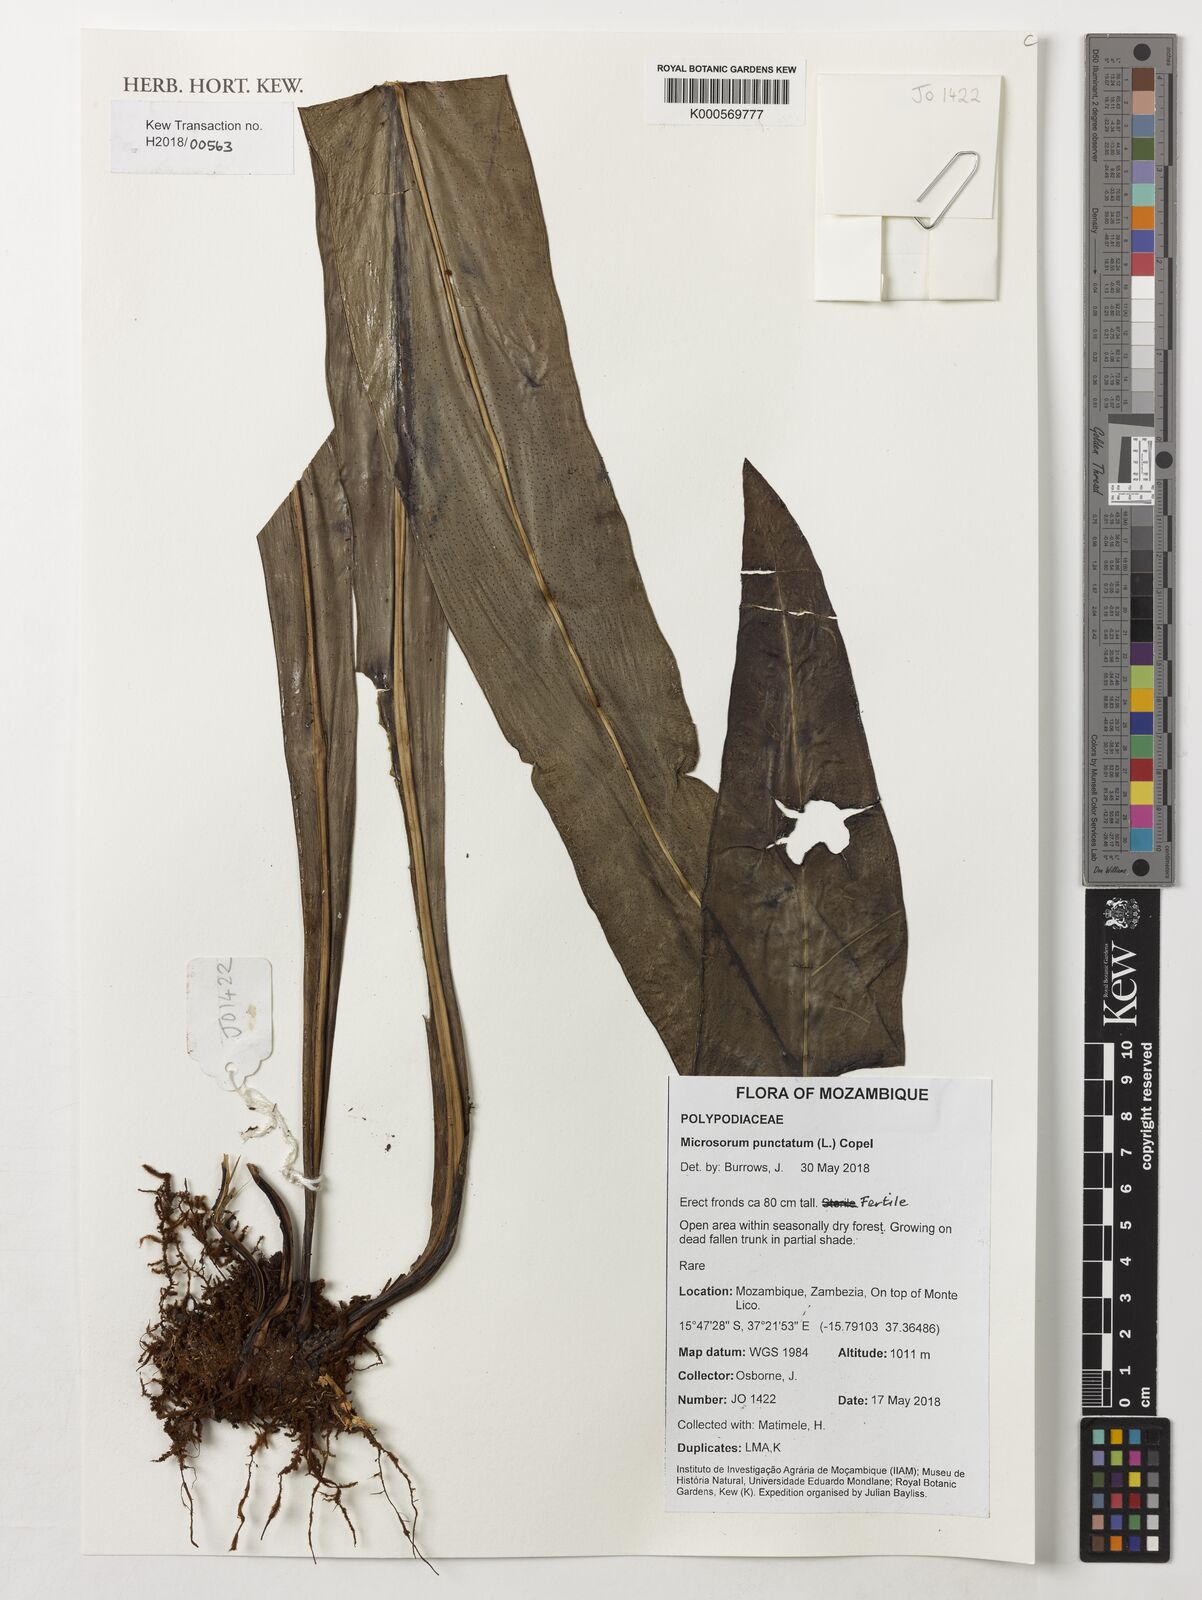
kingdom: Plantae
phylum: Tracheophyta
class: Polypodiopsida
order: Polypodiales
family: Polypodiaceae
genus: Microsorum
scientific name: Microsorum punctatum
